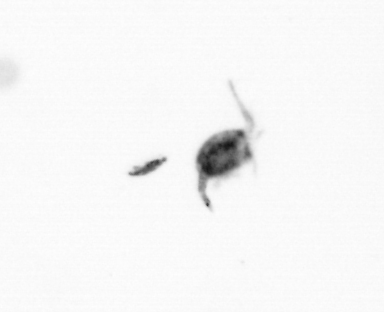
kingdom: Animalia
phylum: Arthropoda
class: Copepoda
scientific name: Copepoda
